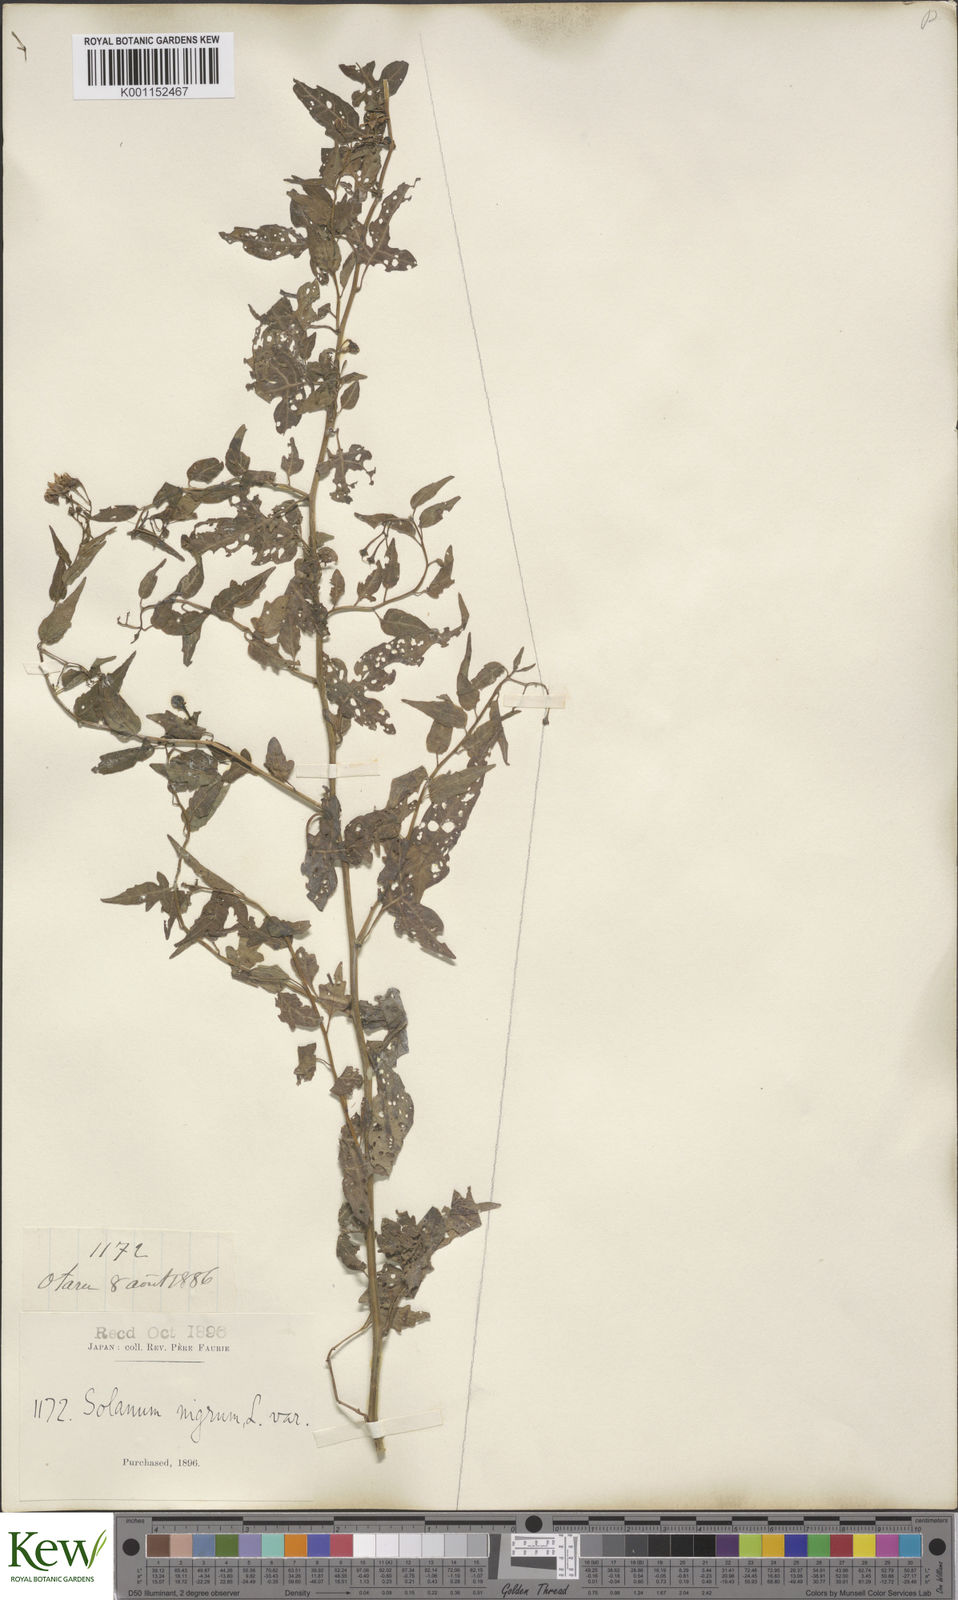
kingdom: Plantae
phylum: Tracheophyta
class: Magnoliopsida
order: Solanales
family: Solanaceae
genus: Solanum
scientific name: Solanum
